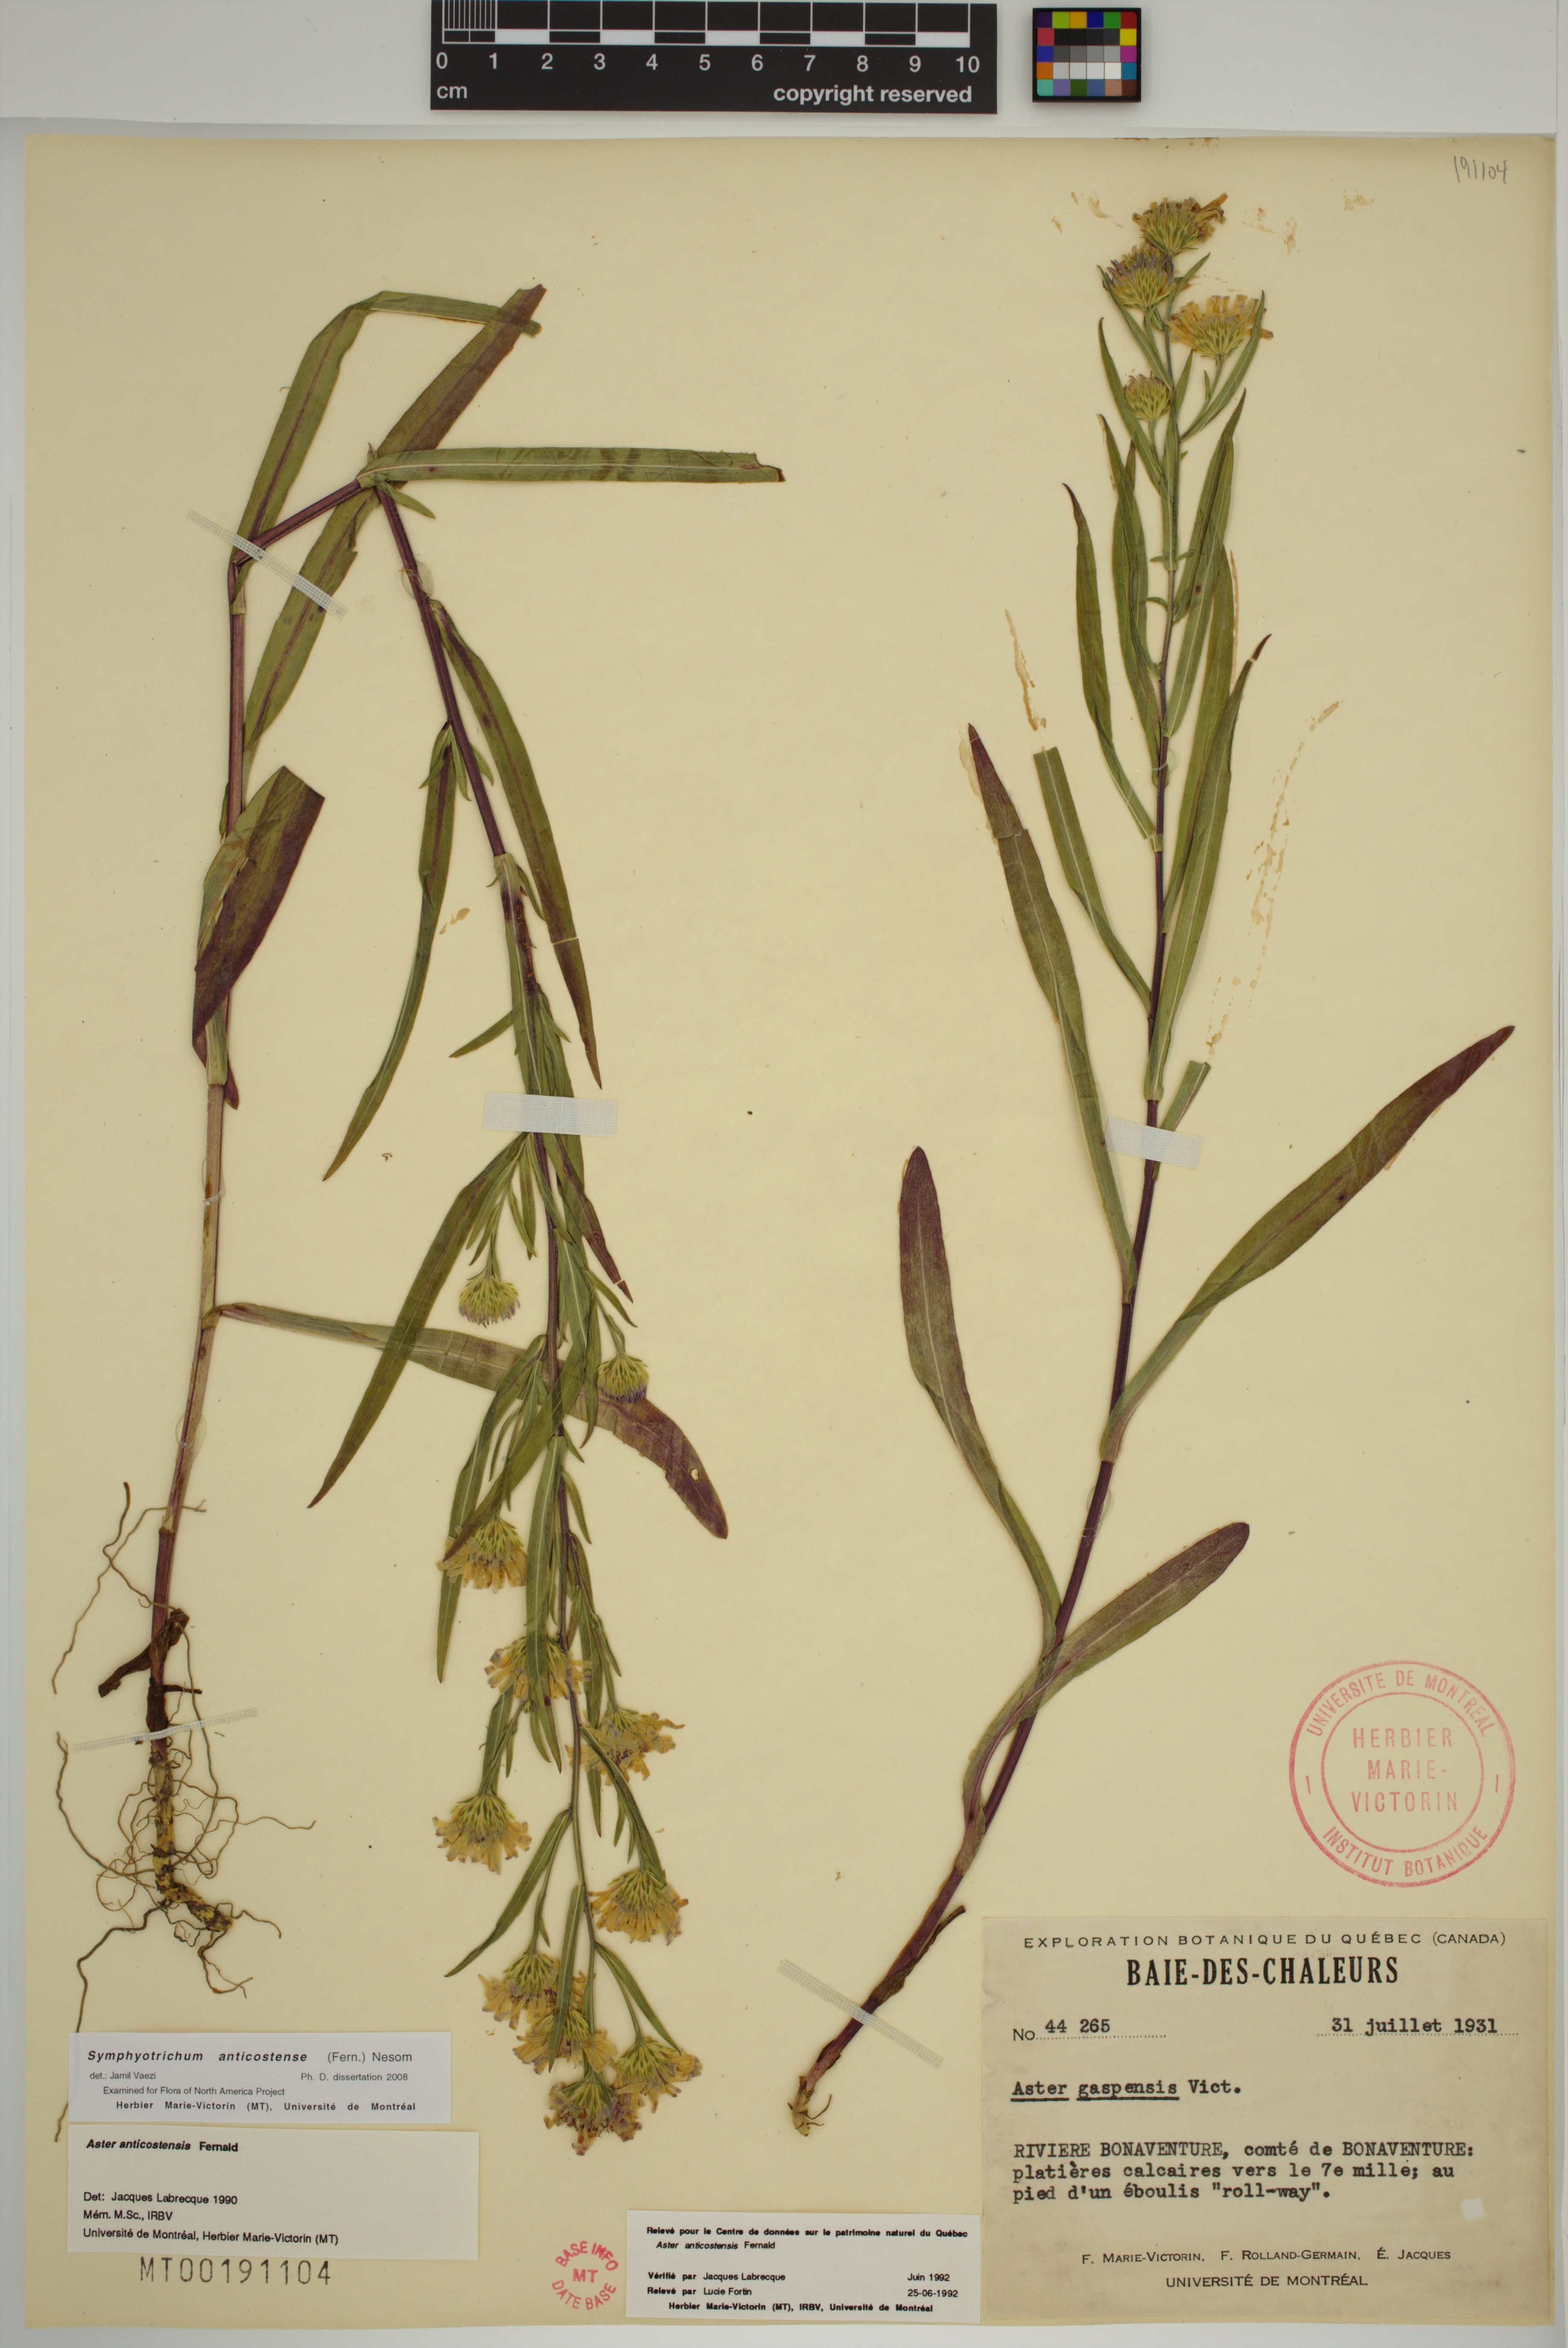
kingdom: Plantae
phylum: Tracheophyta
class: Magnoliopsida
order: Asterales
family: Asteraceae
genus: Symphyotrichum
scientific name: Symphyotrichum anticostense
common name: Anticosti island aster
